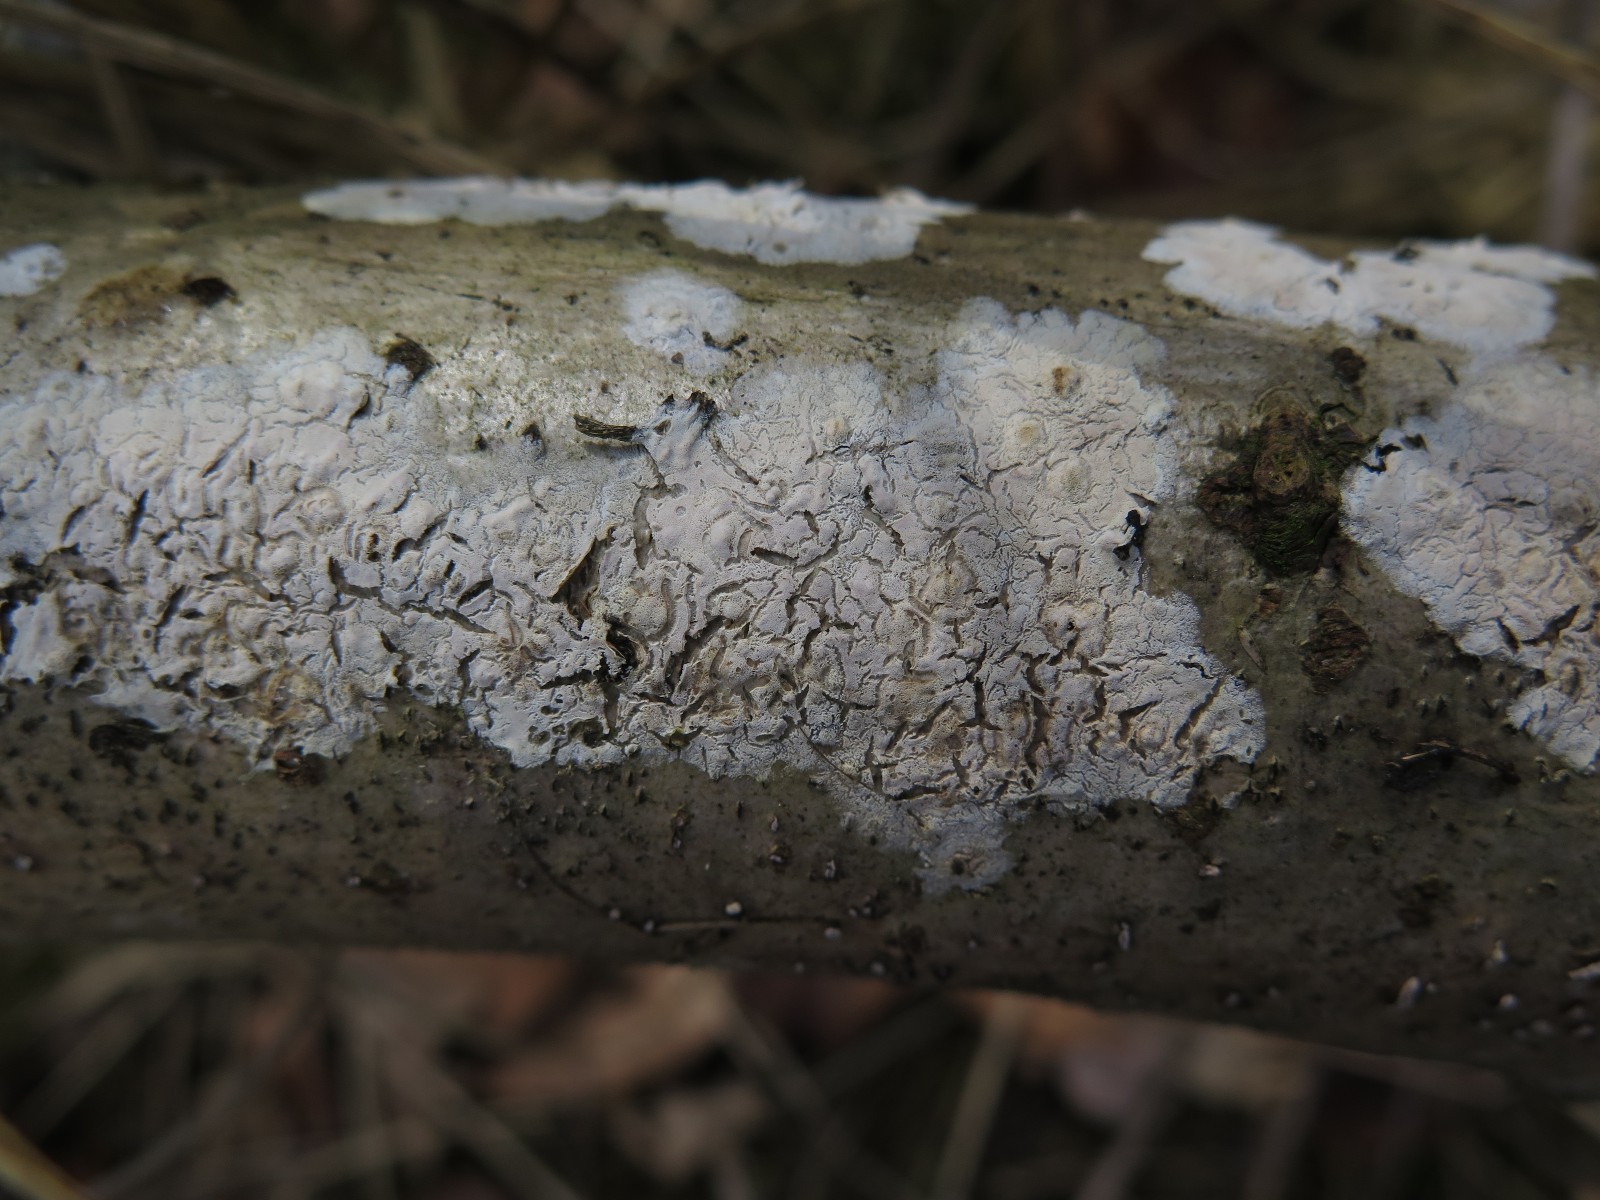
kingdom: Fungi
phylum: Basidiomycota
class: Agaricomycetes
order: Agaricales
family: Physalacriaceae
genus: Cylindrobasidium
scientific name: Cylindrobasidium evolvens
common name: sprækkehinde
